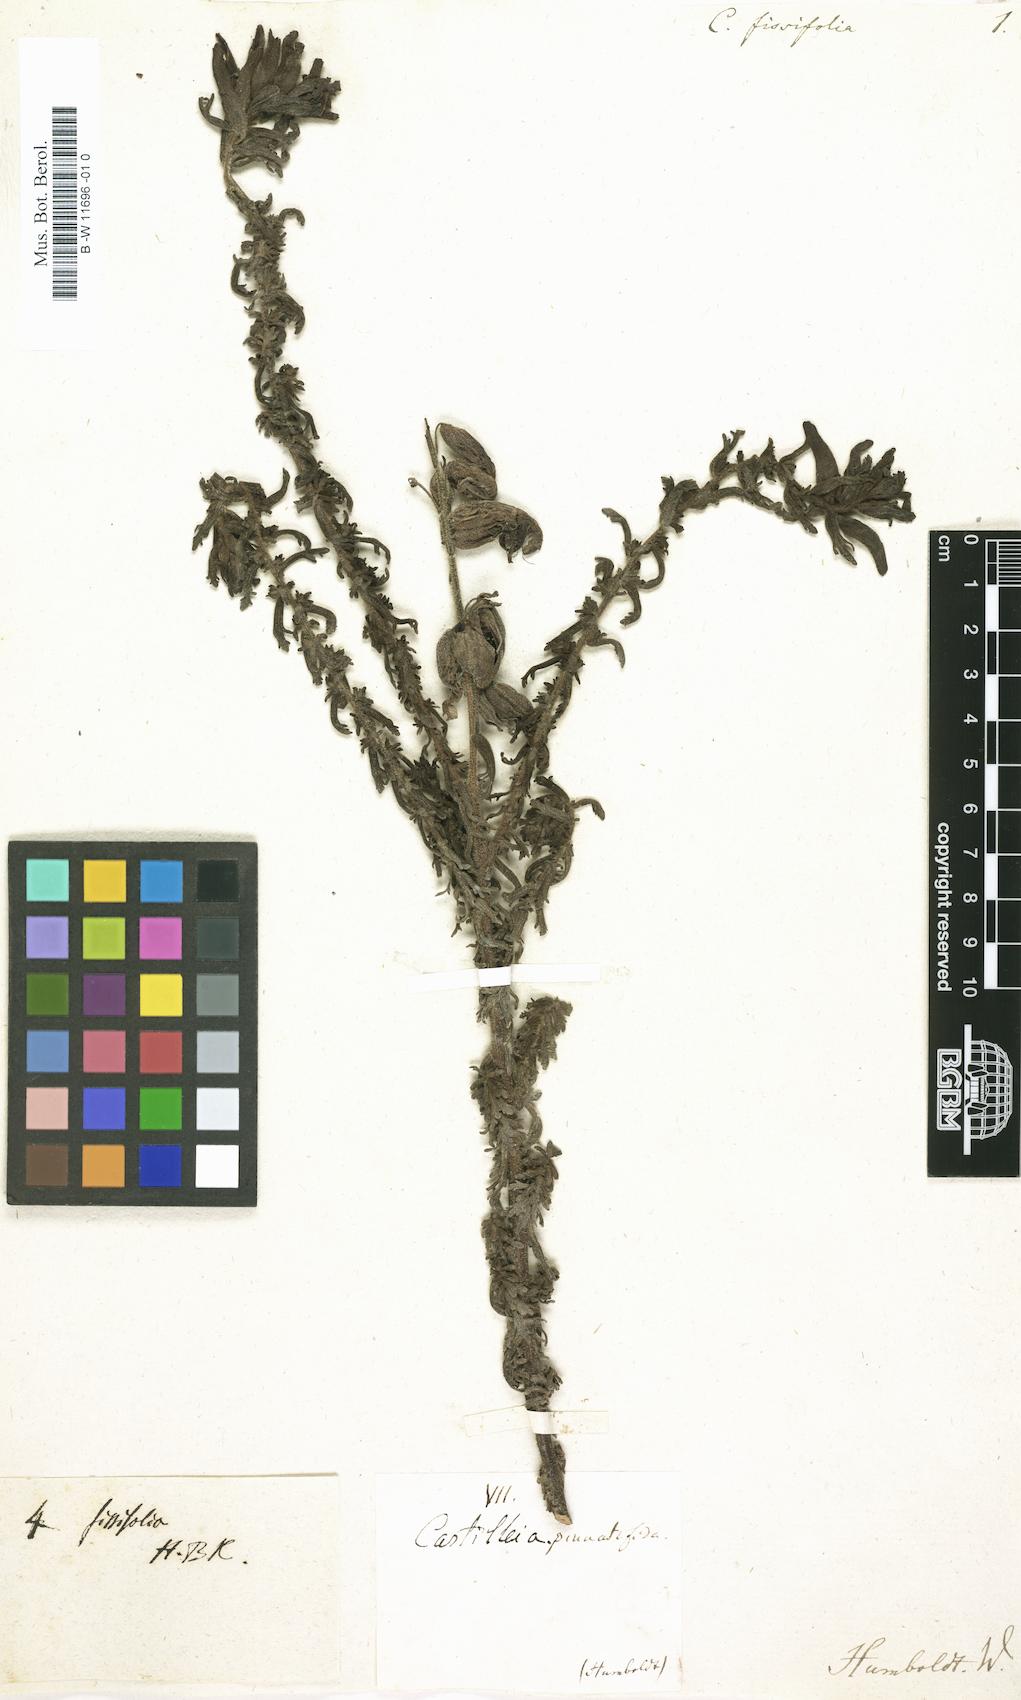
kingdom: Plantae
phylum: Tracheophyta
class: Magnoliopsida
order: Lamiales
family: Orobanchaceae
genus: Castilleja
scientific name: Castilleja fissifolia
